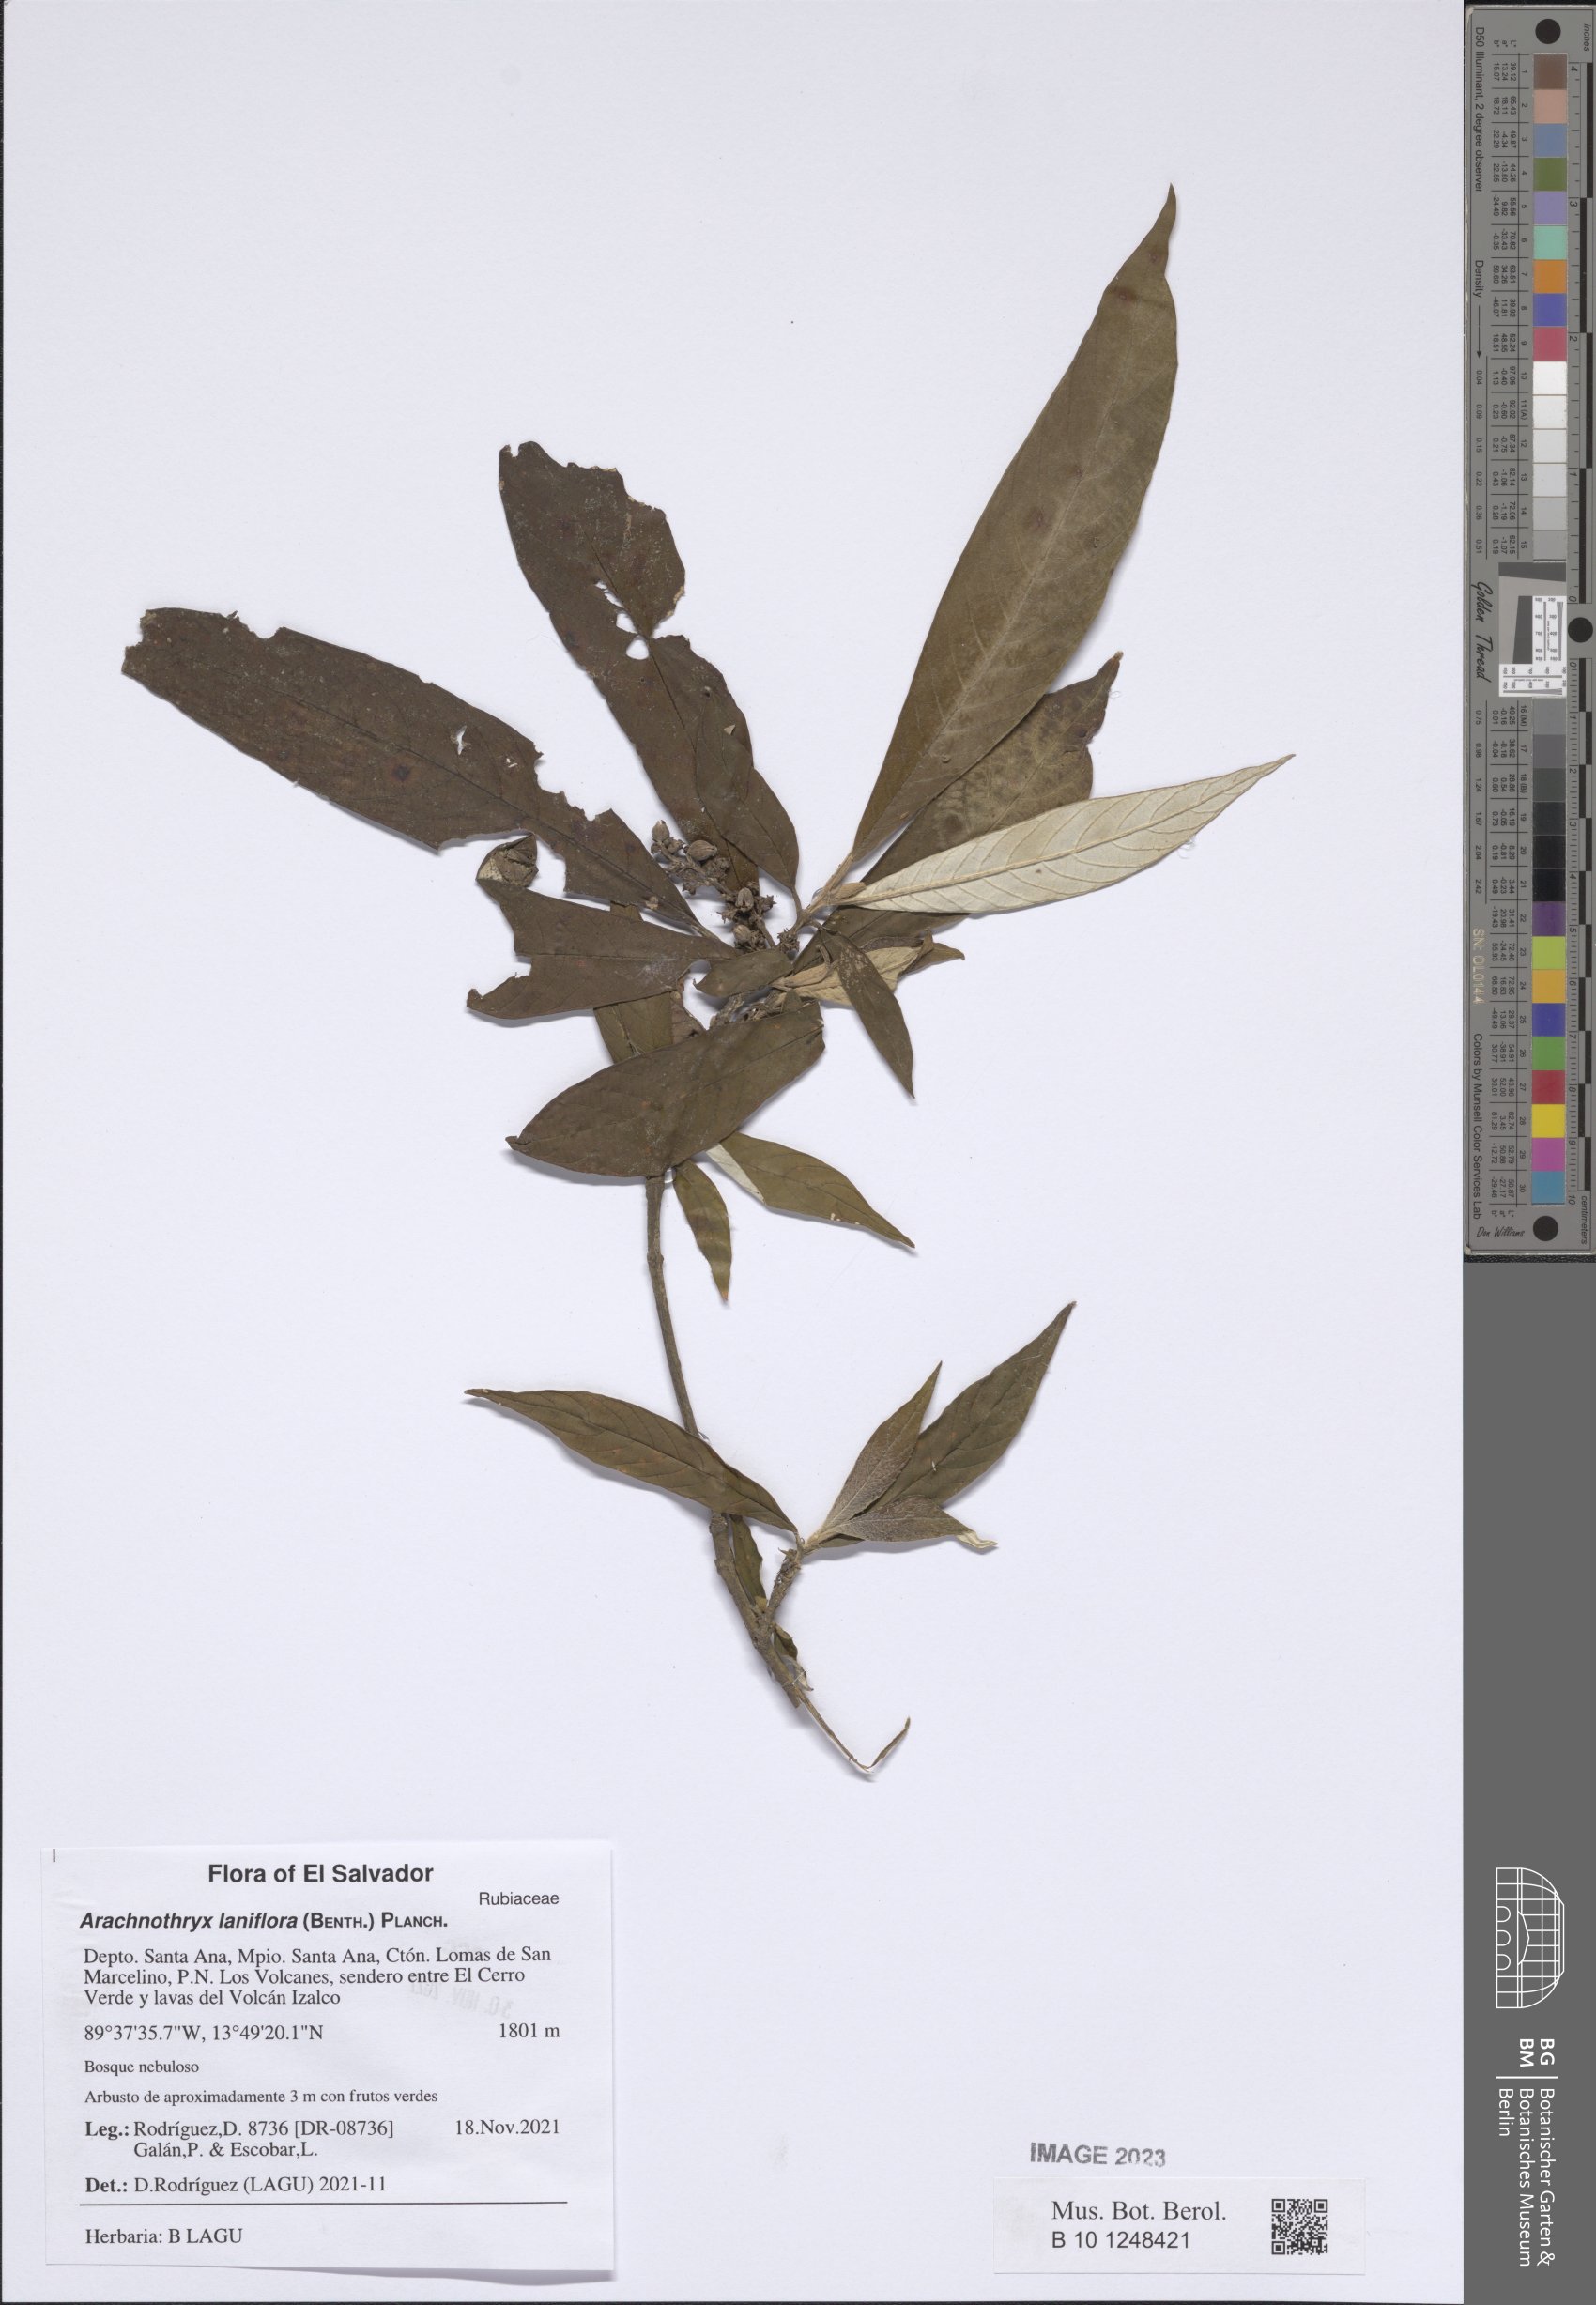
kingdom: Plantae
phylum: Tracheophyta
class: Magnoliopsida
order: Gentianales
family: Rubiaceae
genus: Arachnothryx
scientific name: Arachnothryx laniflora
